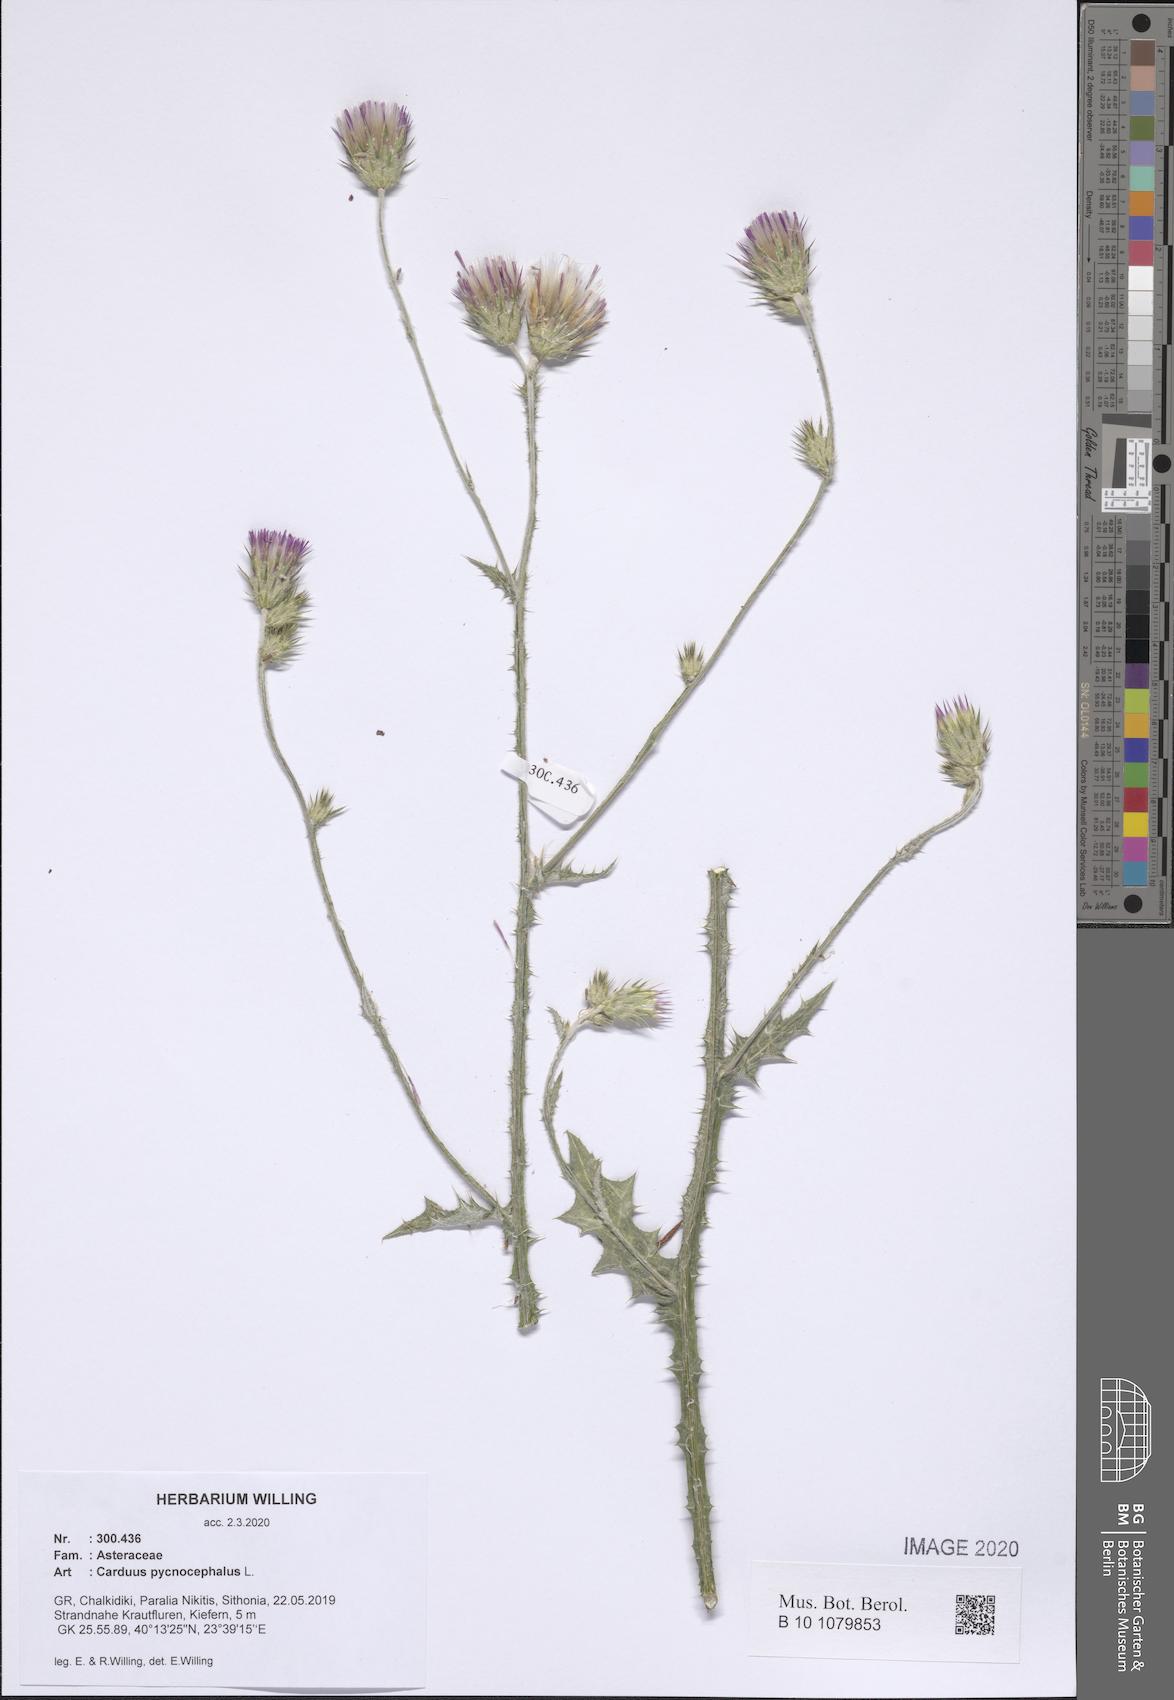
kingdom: Plantae
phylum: Tracheophyta
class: Magnoliopsida
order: Asterales
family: Asteraceae
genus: Carduus
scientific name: Carduus pycnocephalus
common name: Plymouth thistle
